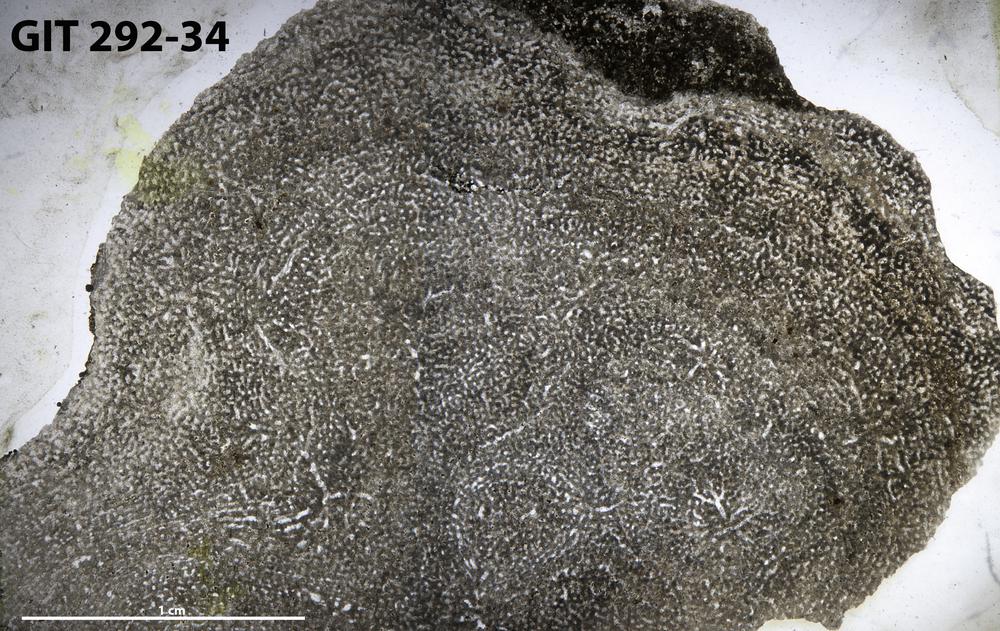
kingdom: Animalia
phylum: Porifera
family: Stromatoporidae
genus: Stromatopora
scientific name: Stromatopora
